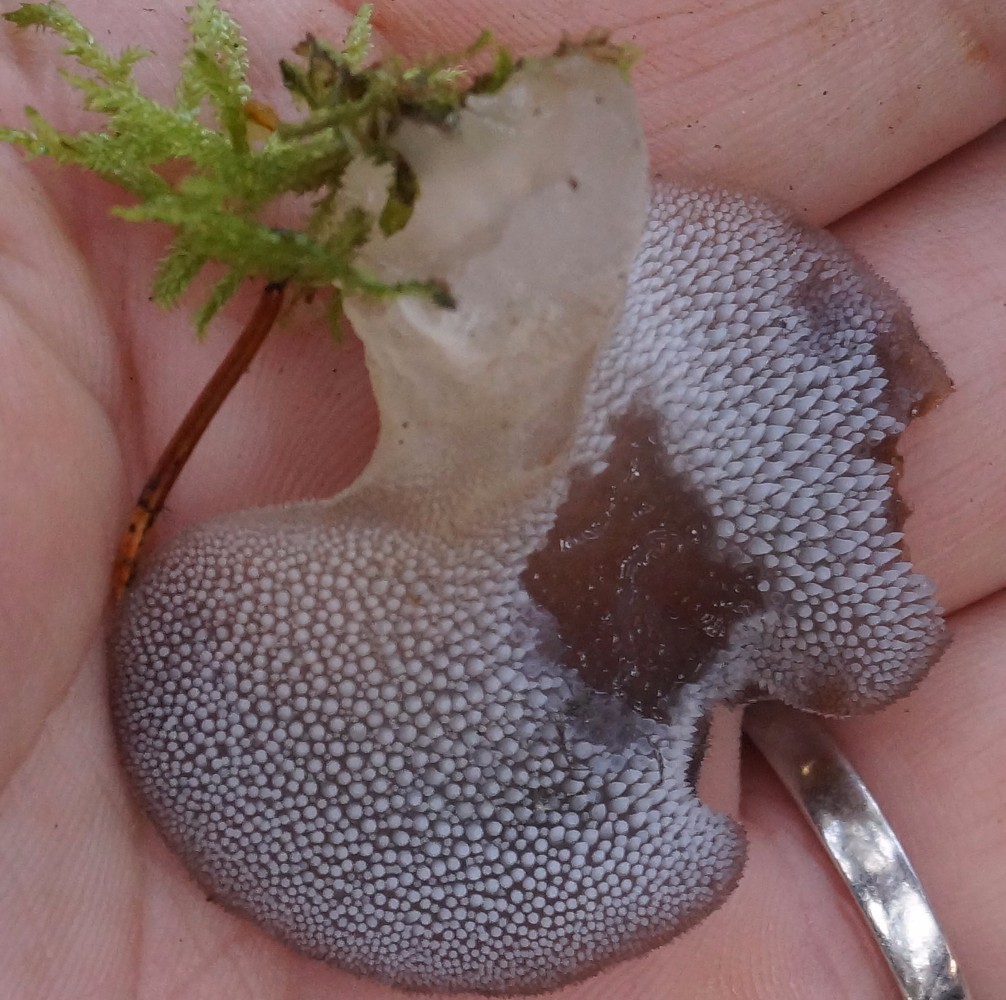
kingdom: Fungi
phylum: Basidiomycota
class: Agaricomycetes
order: Auriculariales
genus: Pseudohydnum
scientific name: Pseudohydnum gelatinosum
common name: bævretand
